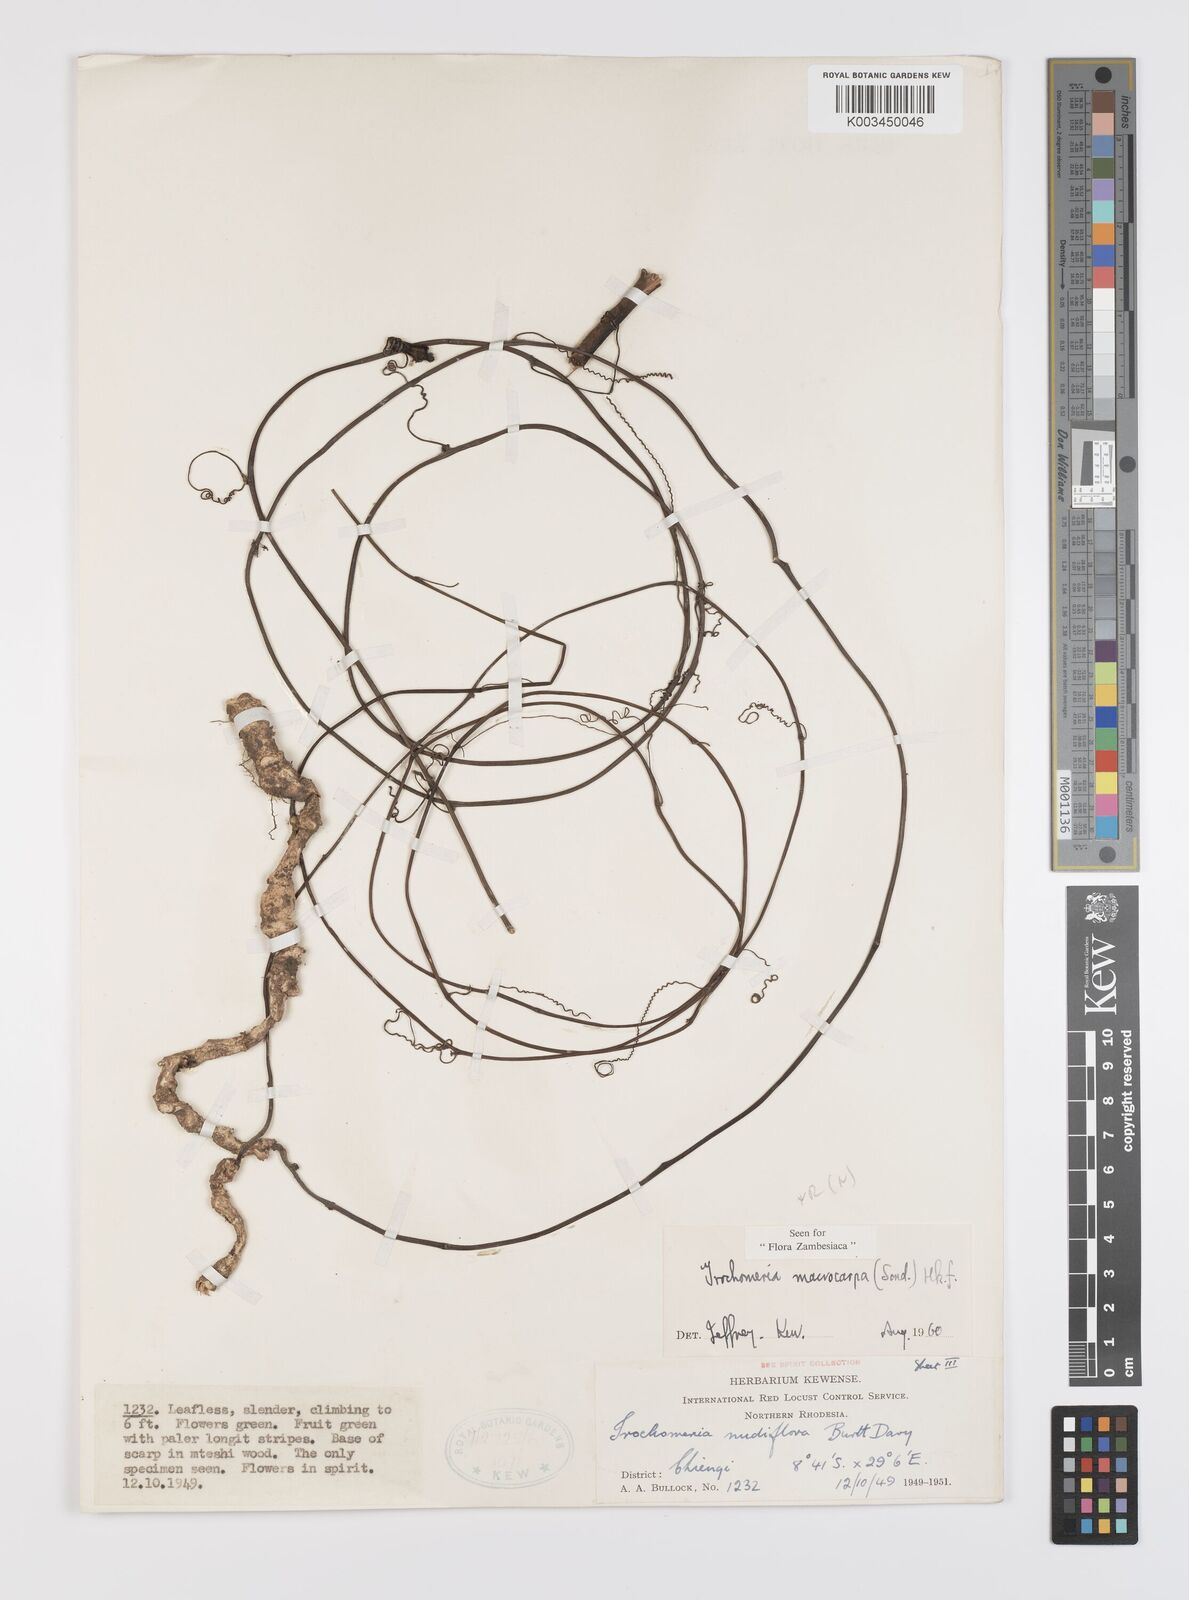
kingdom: Plantae
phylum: Tracheophyta
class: Magnoliopsida
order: Cucurbitales
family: Cucurbitaceae
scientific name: Cucurbitaceae
